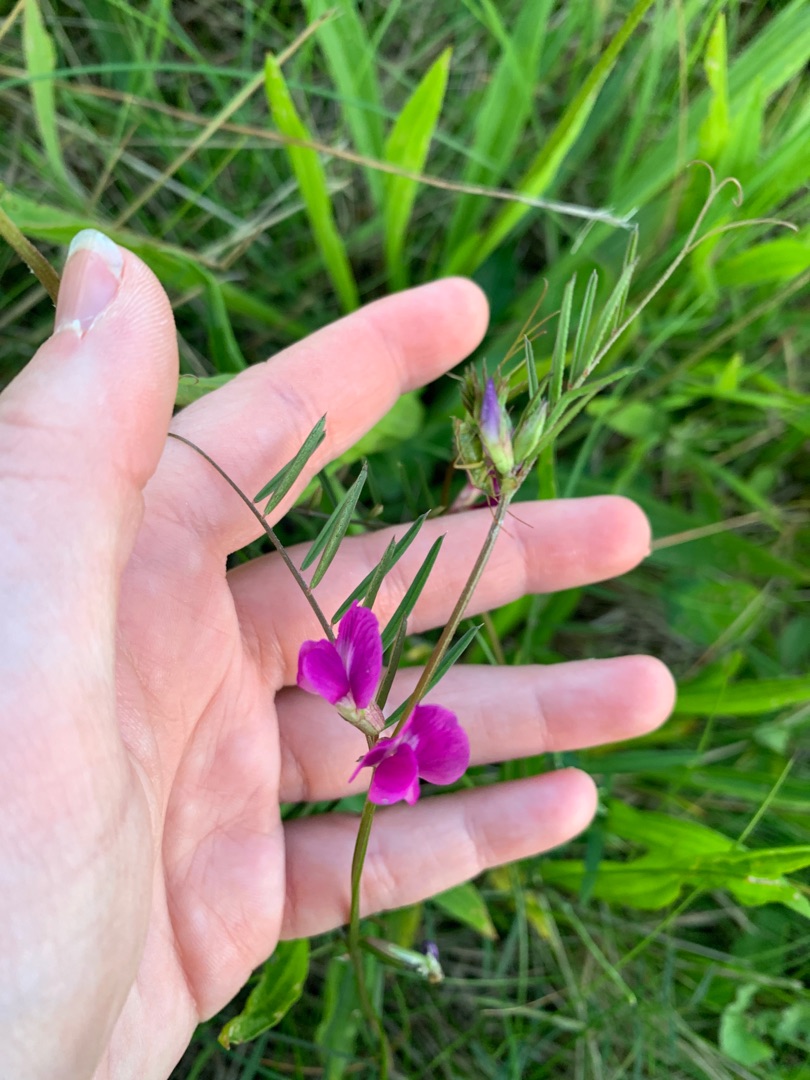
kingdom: Plantae
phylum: Tracheophyta
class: Magnoliopsida
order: Fabales
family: Fabaceae
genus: Vicia
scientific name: Vicia sativa
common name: Smalbladet vikke
